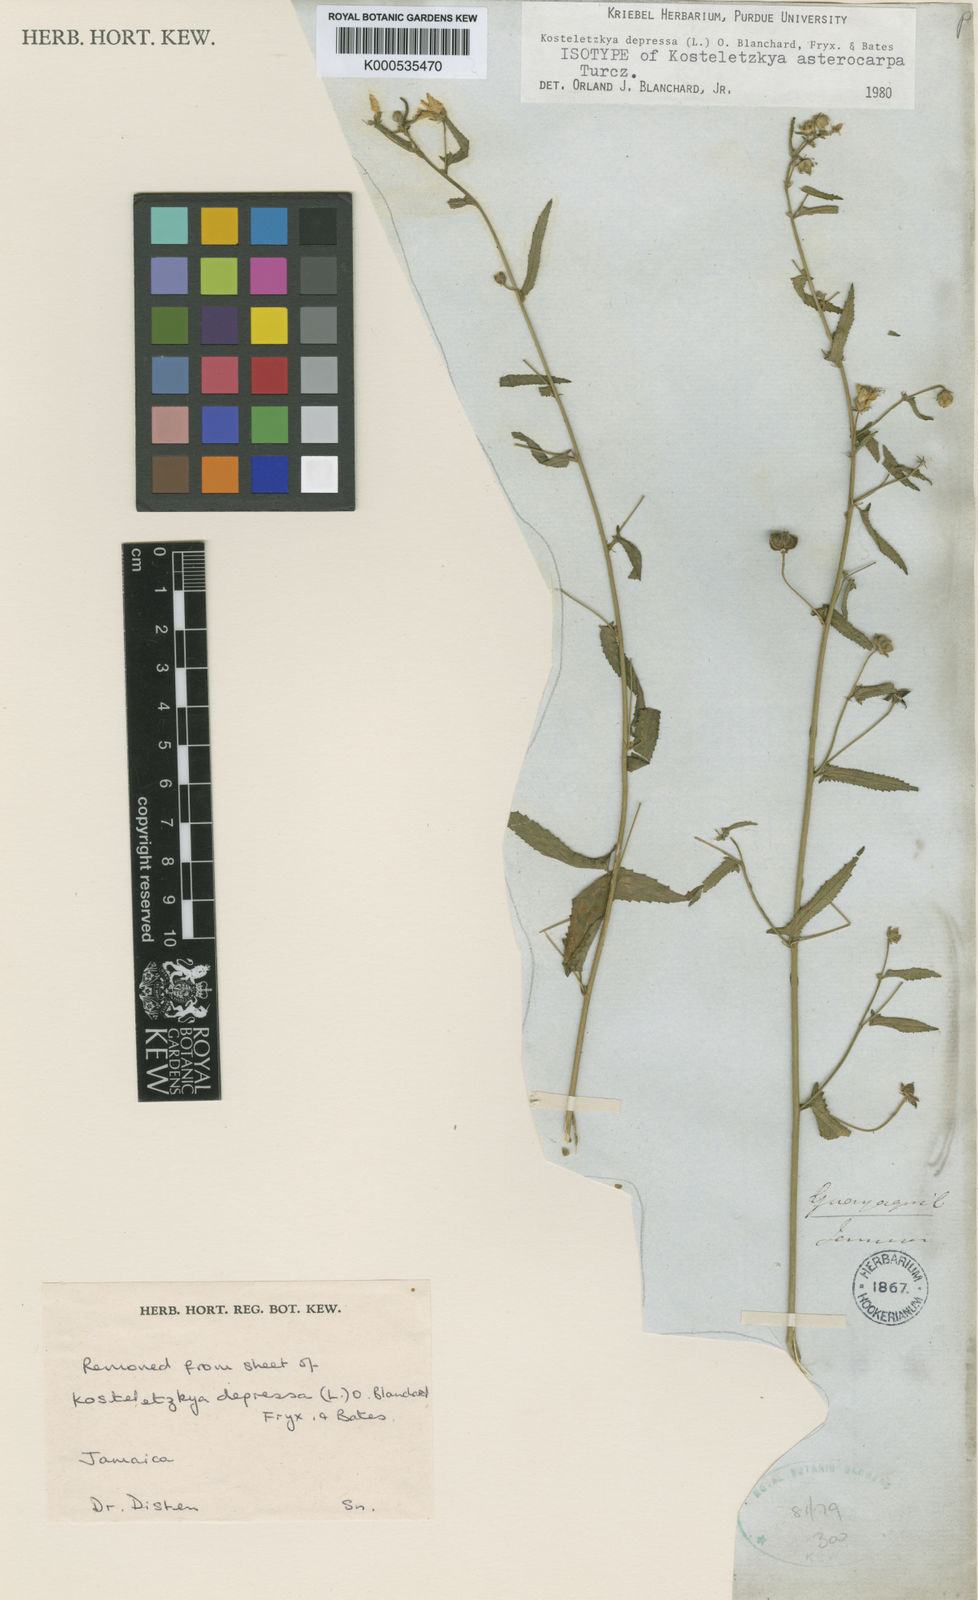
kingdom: Plantae
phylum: Tracheophyta
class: Magnoliopsida
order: Malvales
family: Malvaceae
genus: Kosteletzkya
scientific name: Kosteletzkya depressa
